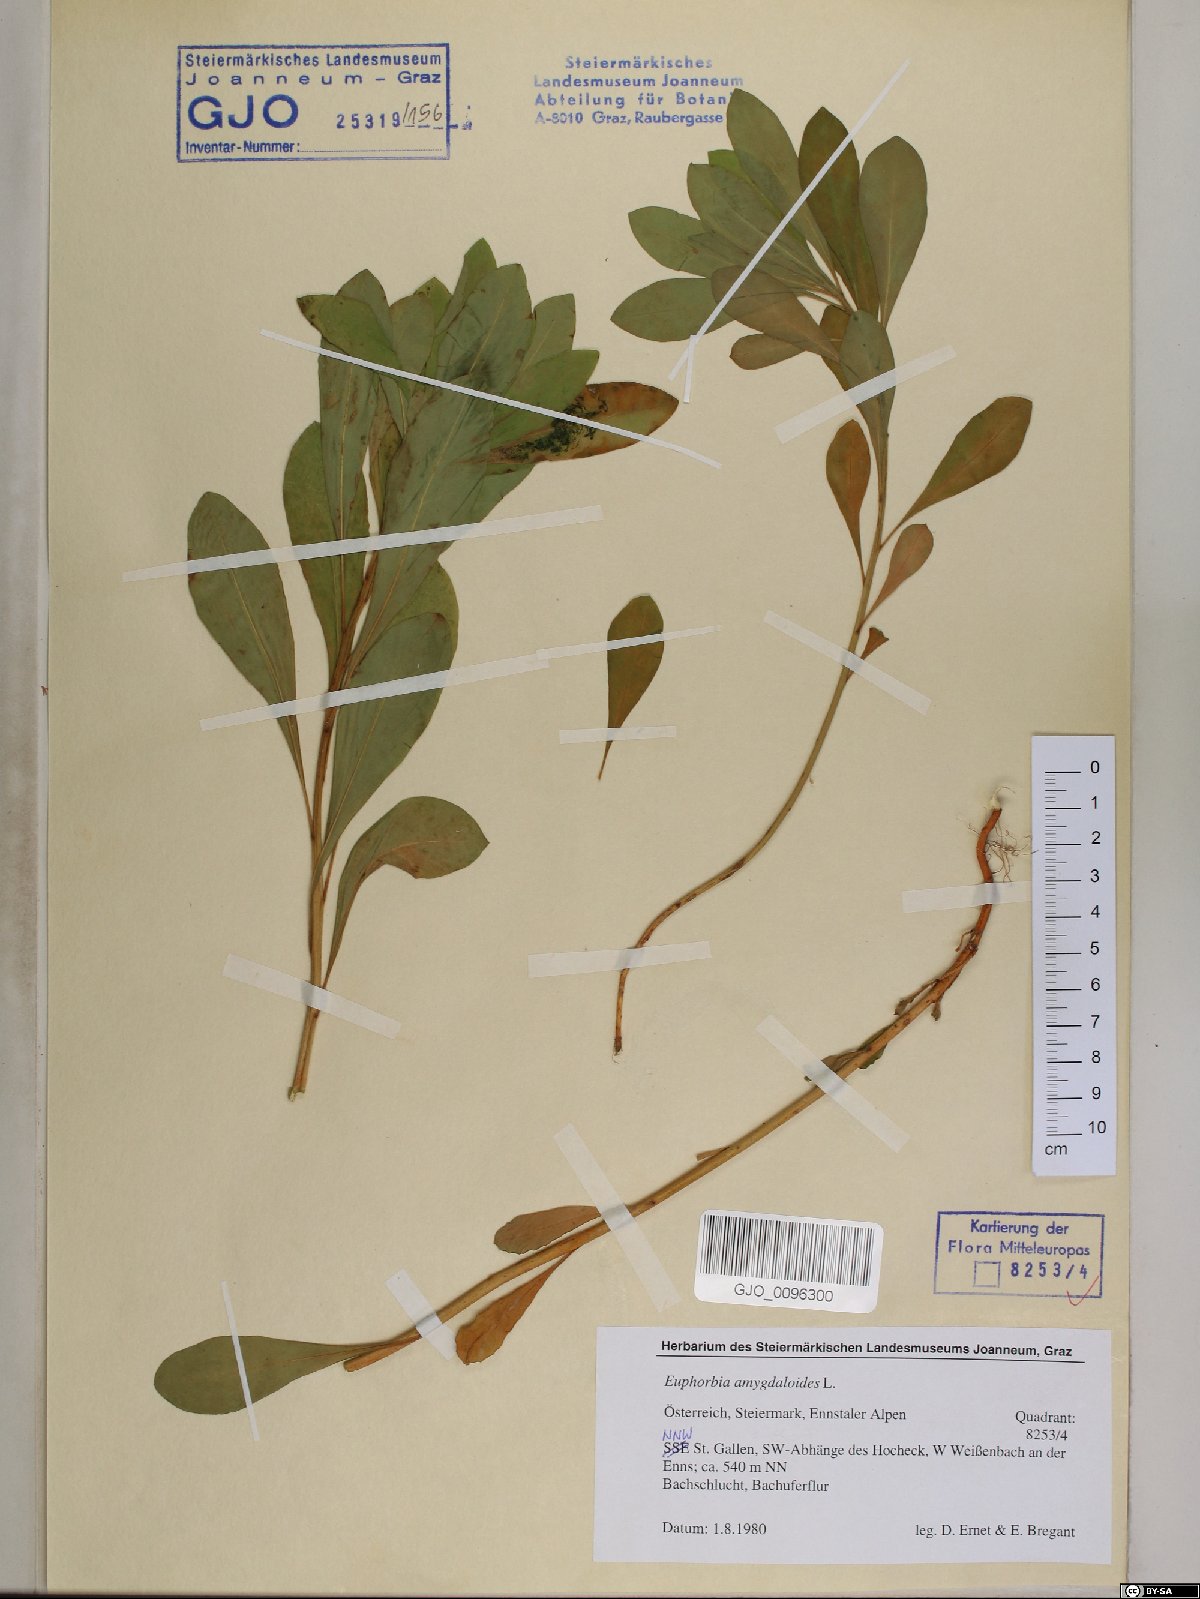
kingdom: Plantae
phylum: Tracheophyta
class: Magnoliopsida
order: Malpighiales
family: Euphorbiaceae
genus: Euphorbia
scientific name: Euphorbia amygdaloides
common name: Wood spurge
